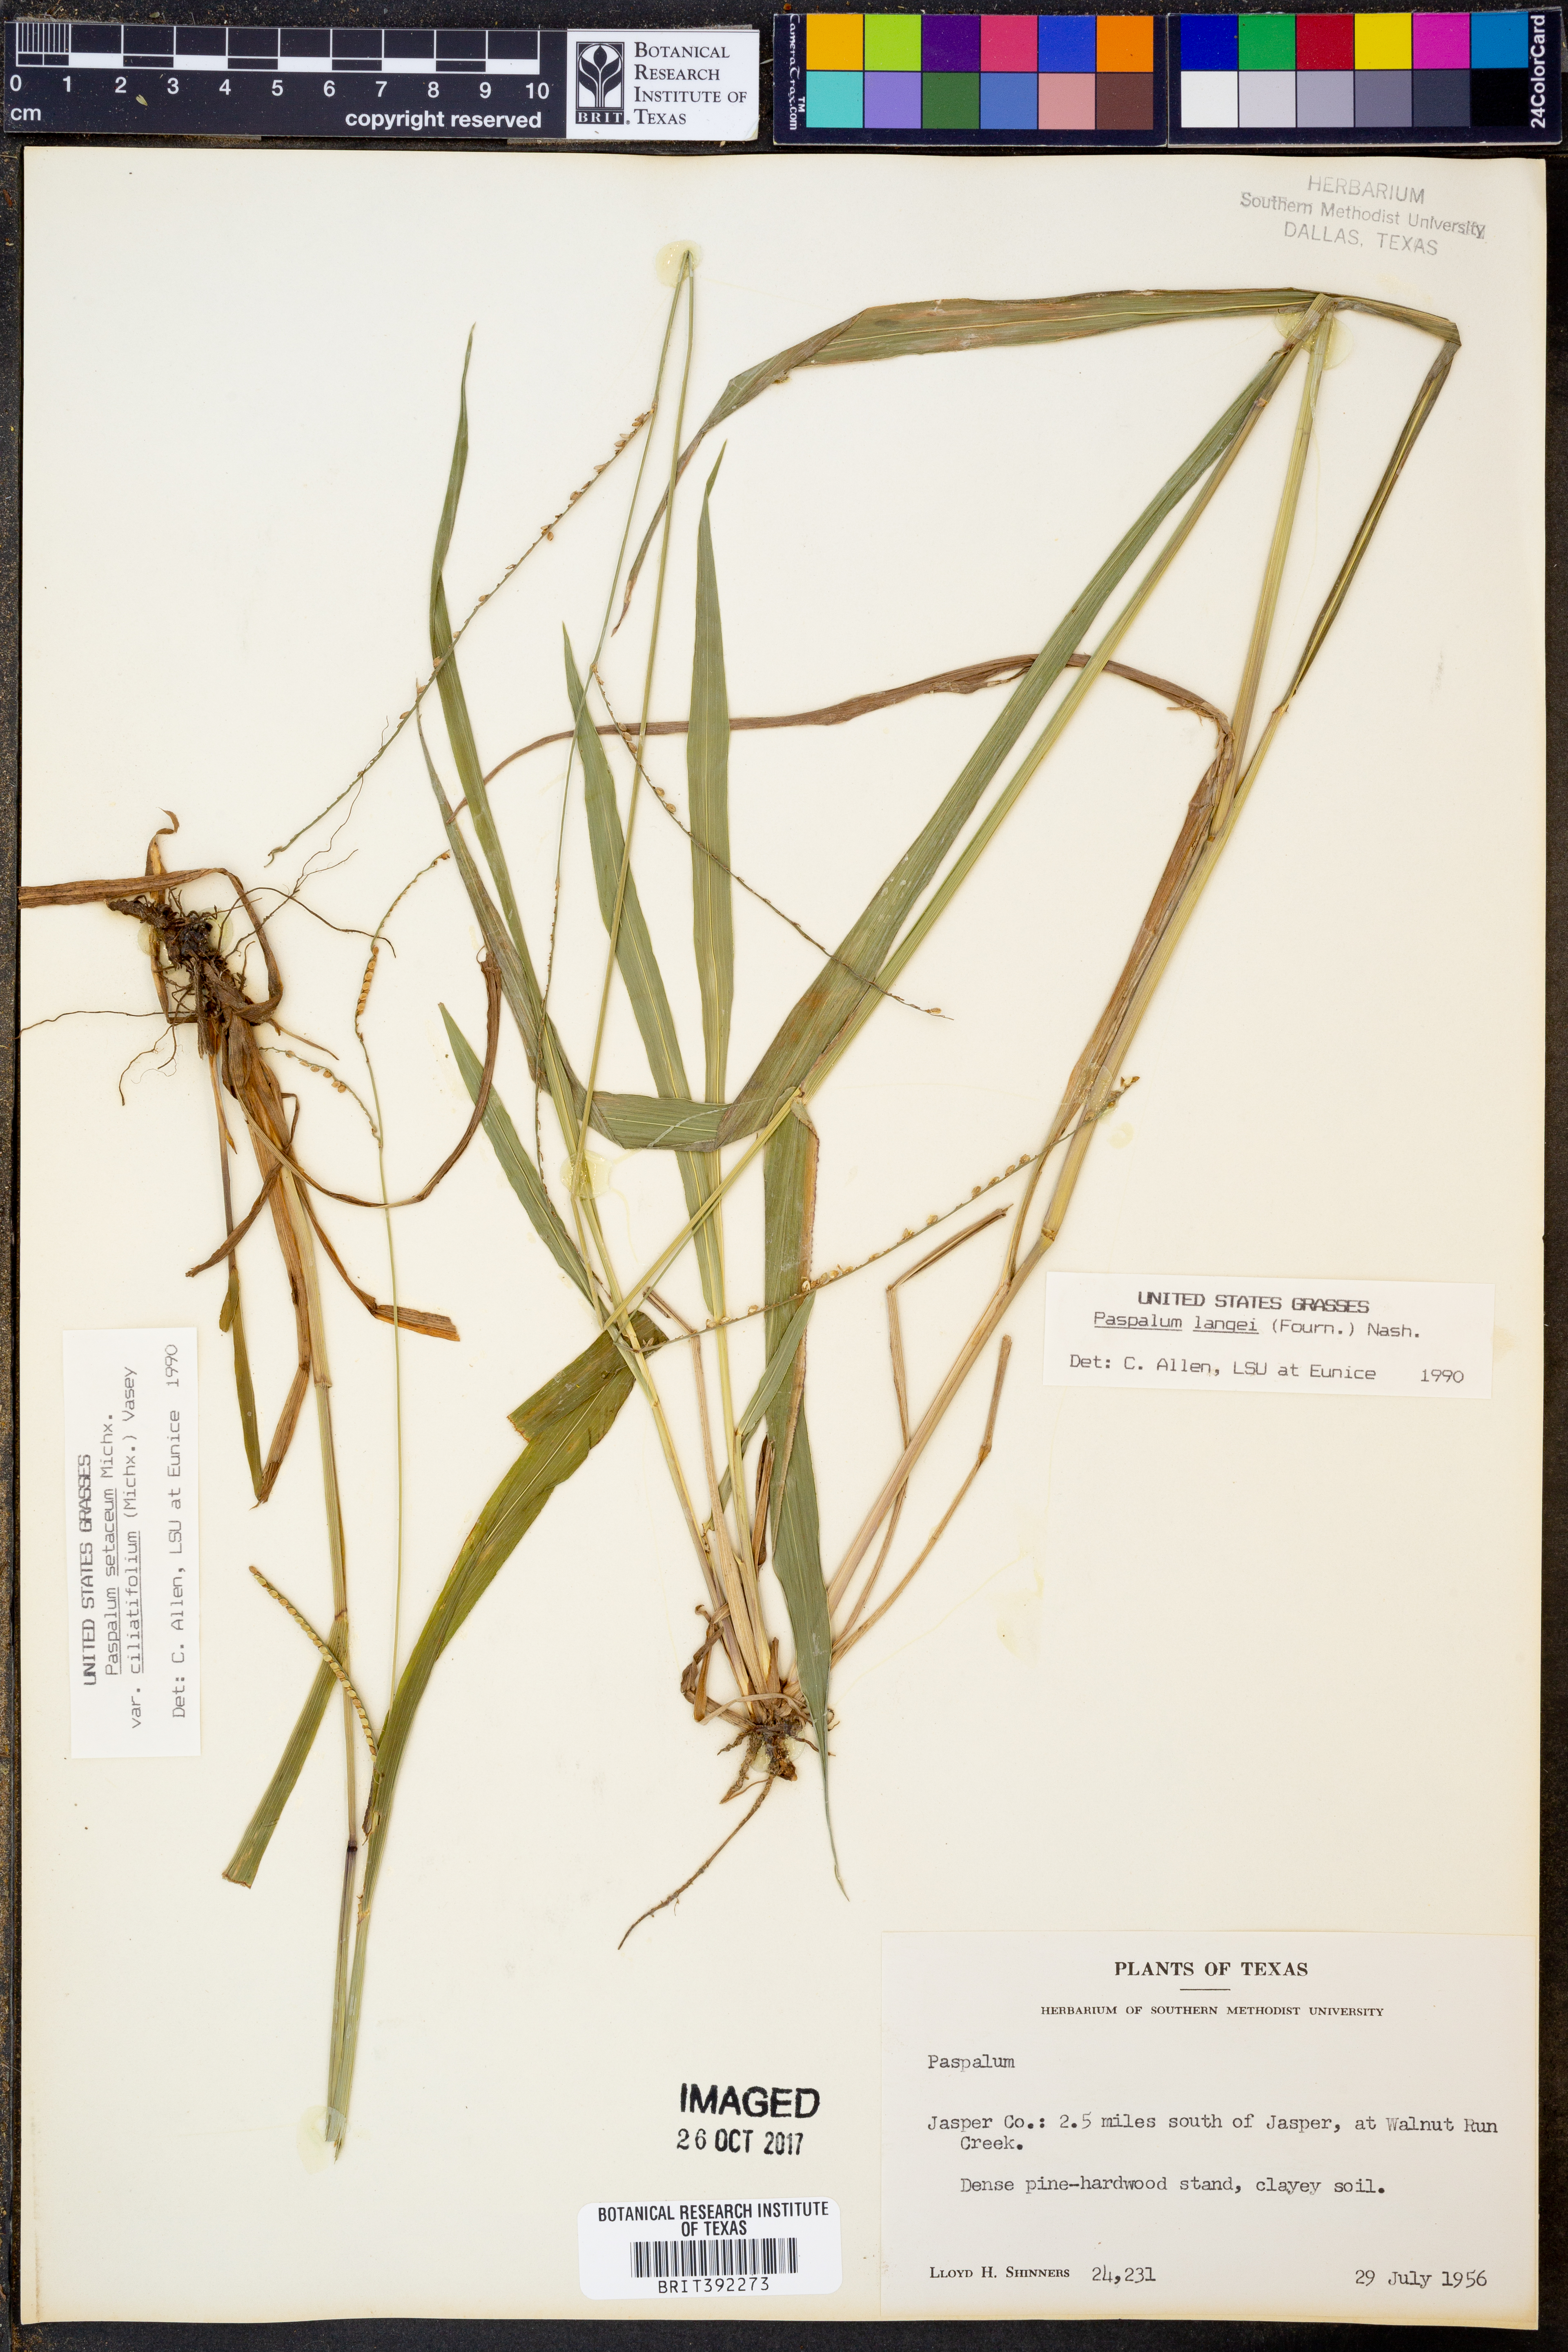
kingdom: Plantae
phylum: Tracheophyta
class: Liliopsida
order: Poales
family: Poaceae
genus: Paspalum
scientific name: Paspalum
